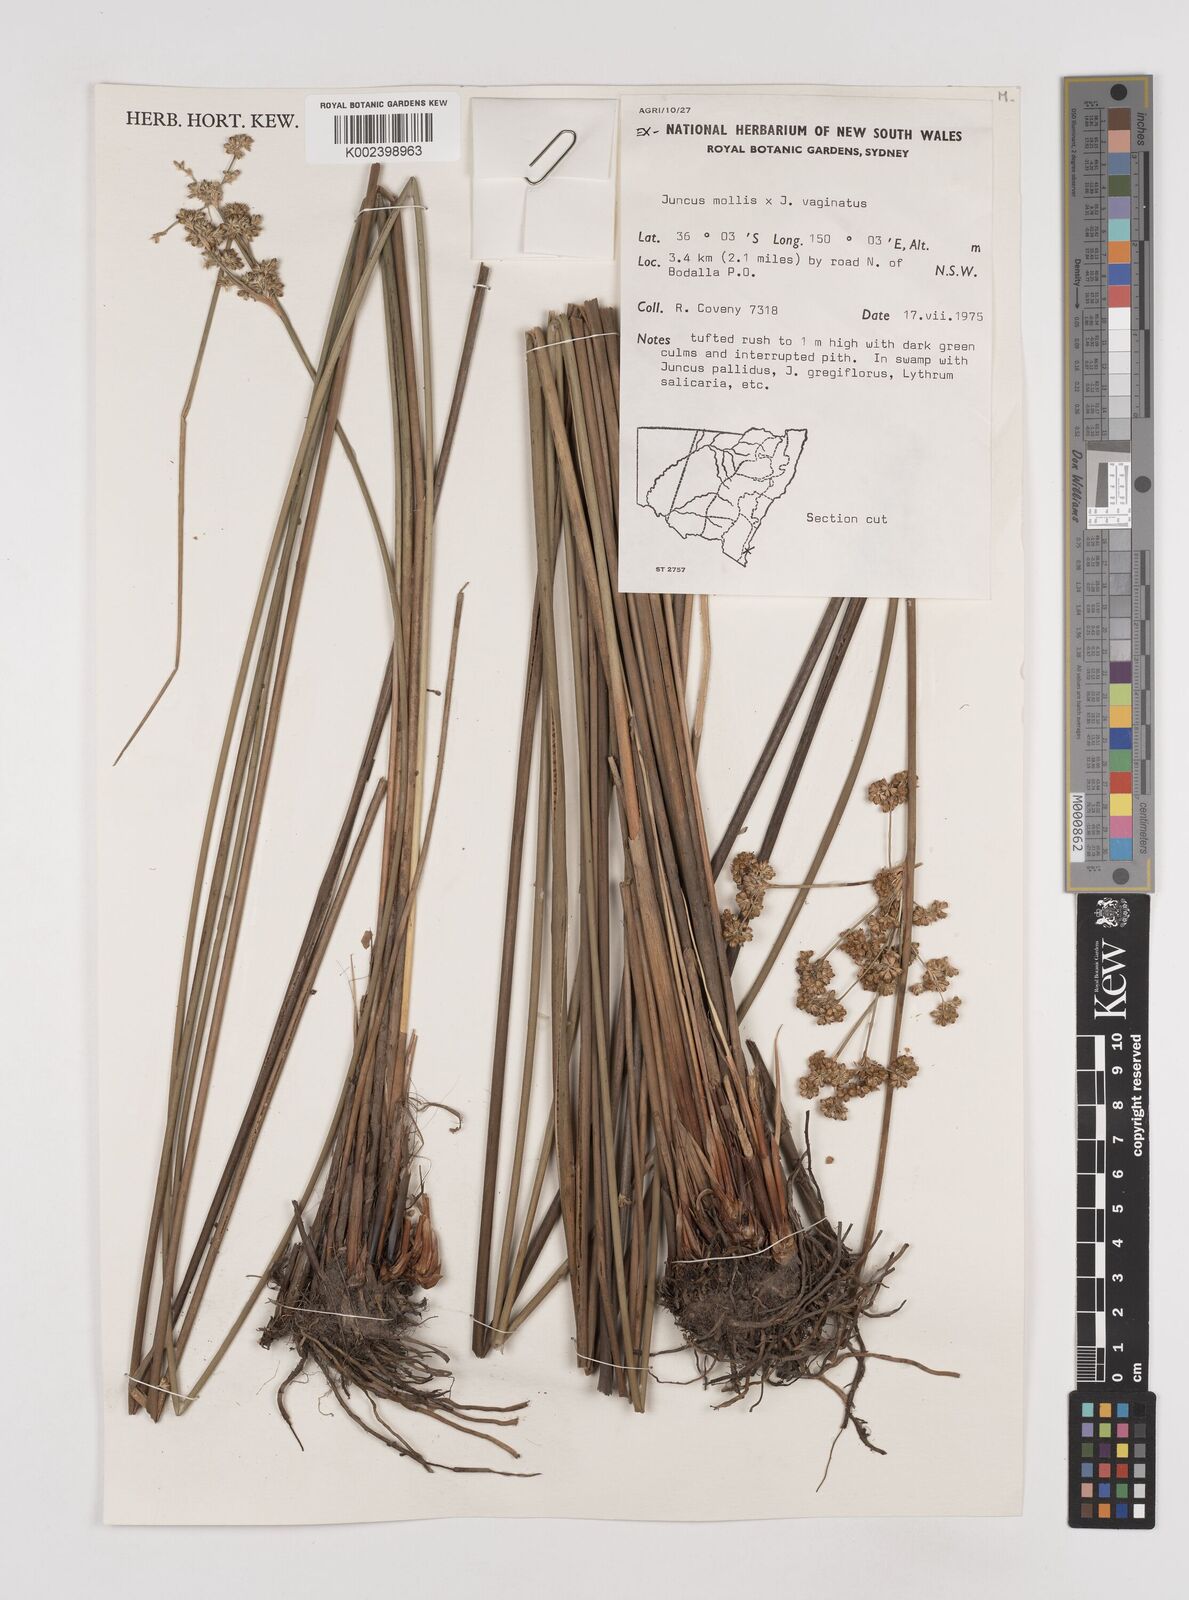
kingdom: Plantae
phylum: Tracheophyta
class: Liliopsida
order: Poales
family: Juncaceae
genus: Juncus
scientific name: Juncus mollis
